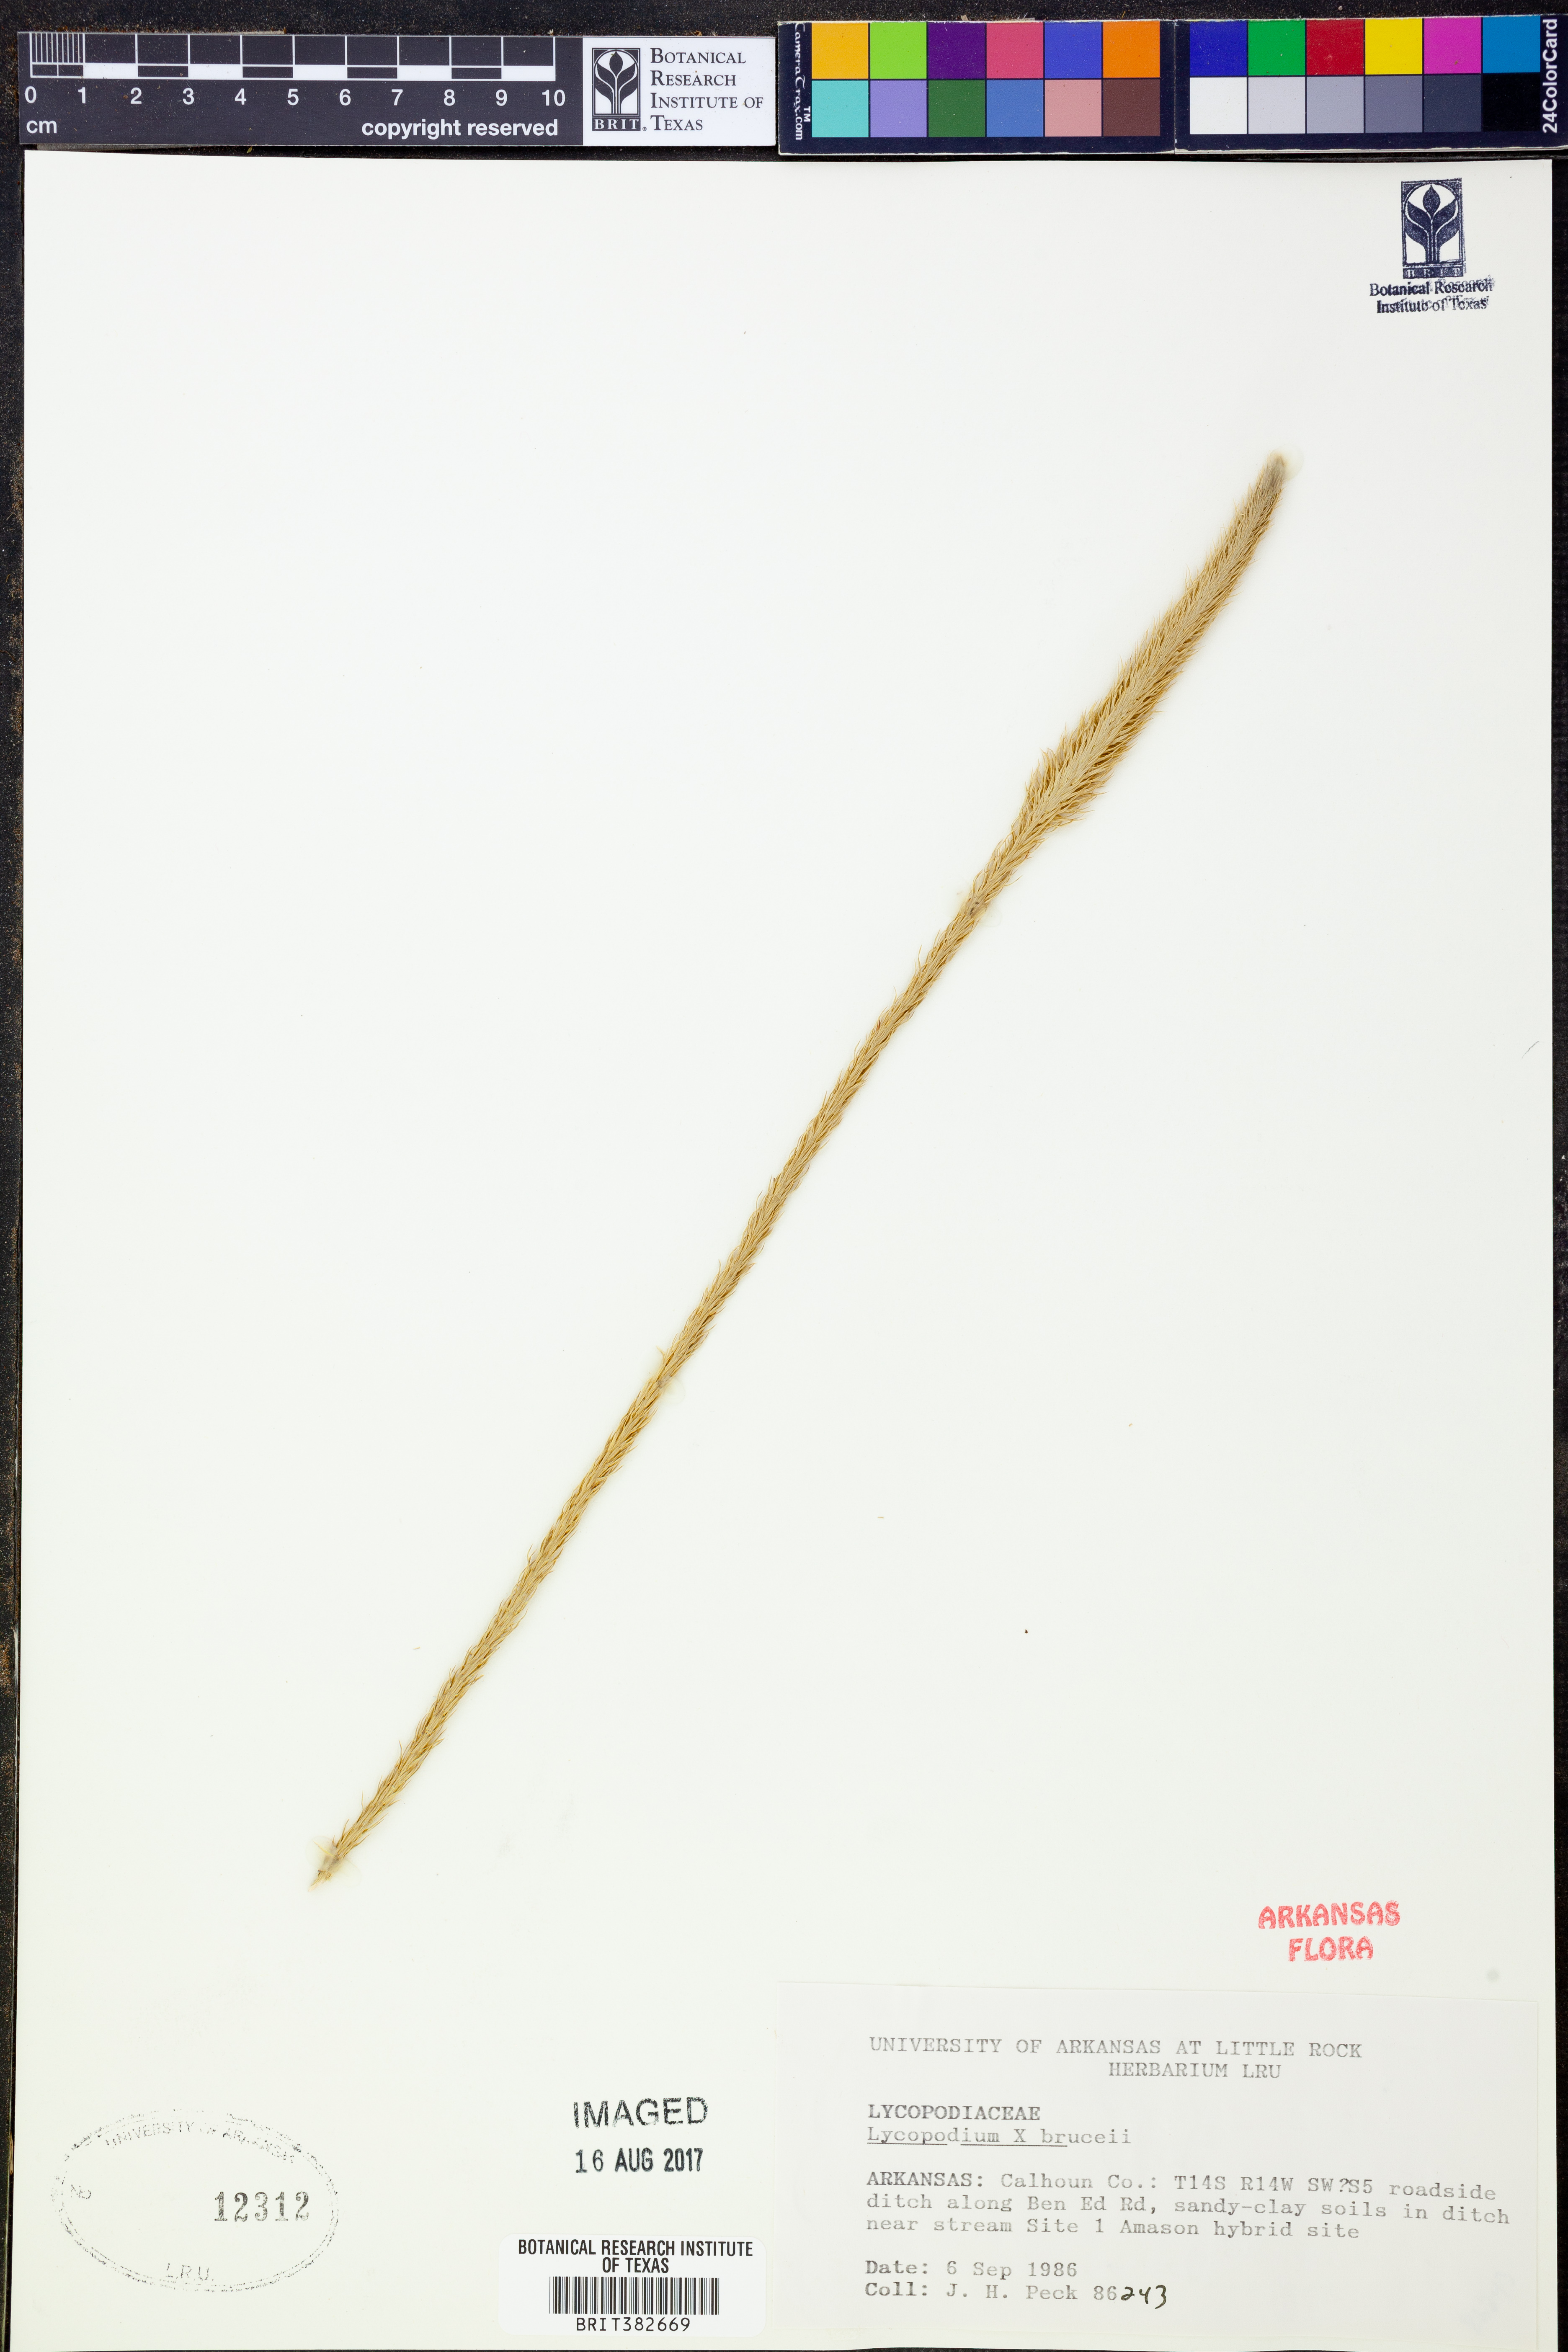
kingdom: Plantae
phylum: Tracheophyta
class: Lycopodiopsida
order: Lycopodiales
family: Lycopodiaceae
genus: Lycopodiella
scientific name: Lycopodiella brucei
